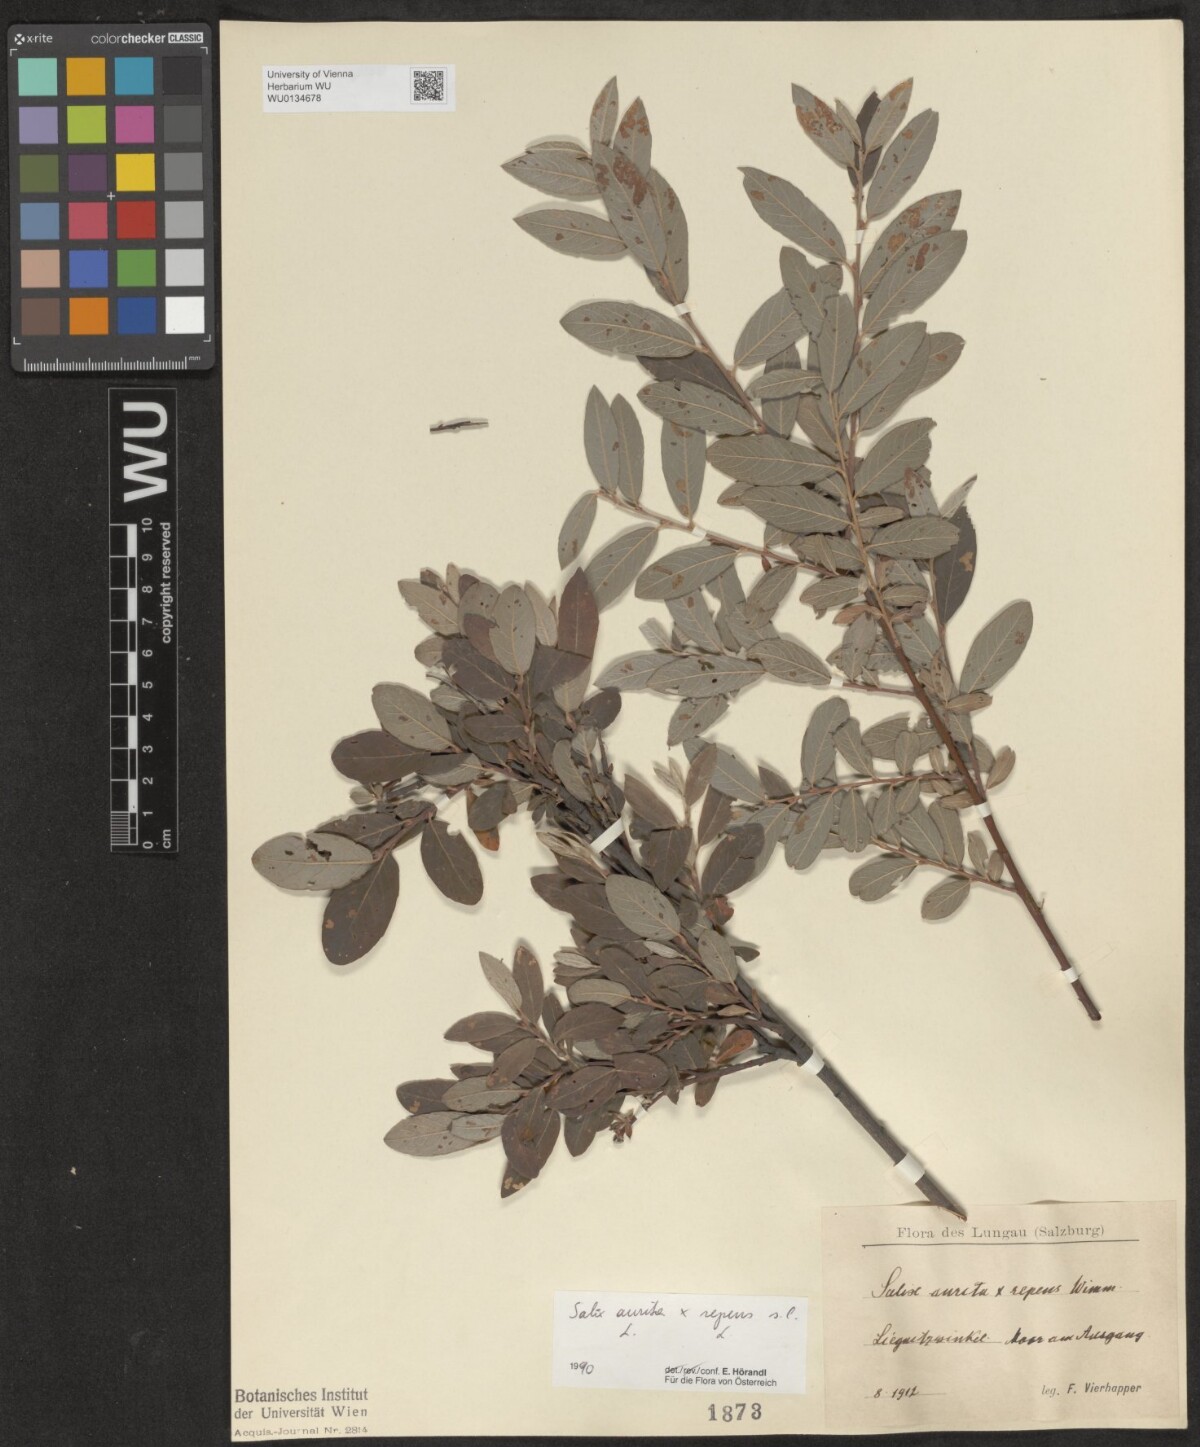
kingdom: Plantae
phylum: Tracheophyta
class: Magnoliopsida
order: Malpighiales
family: Salicaceae
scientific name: Salicaceae
